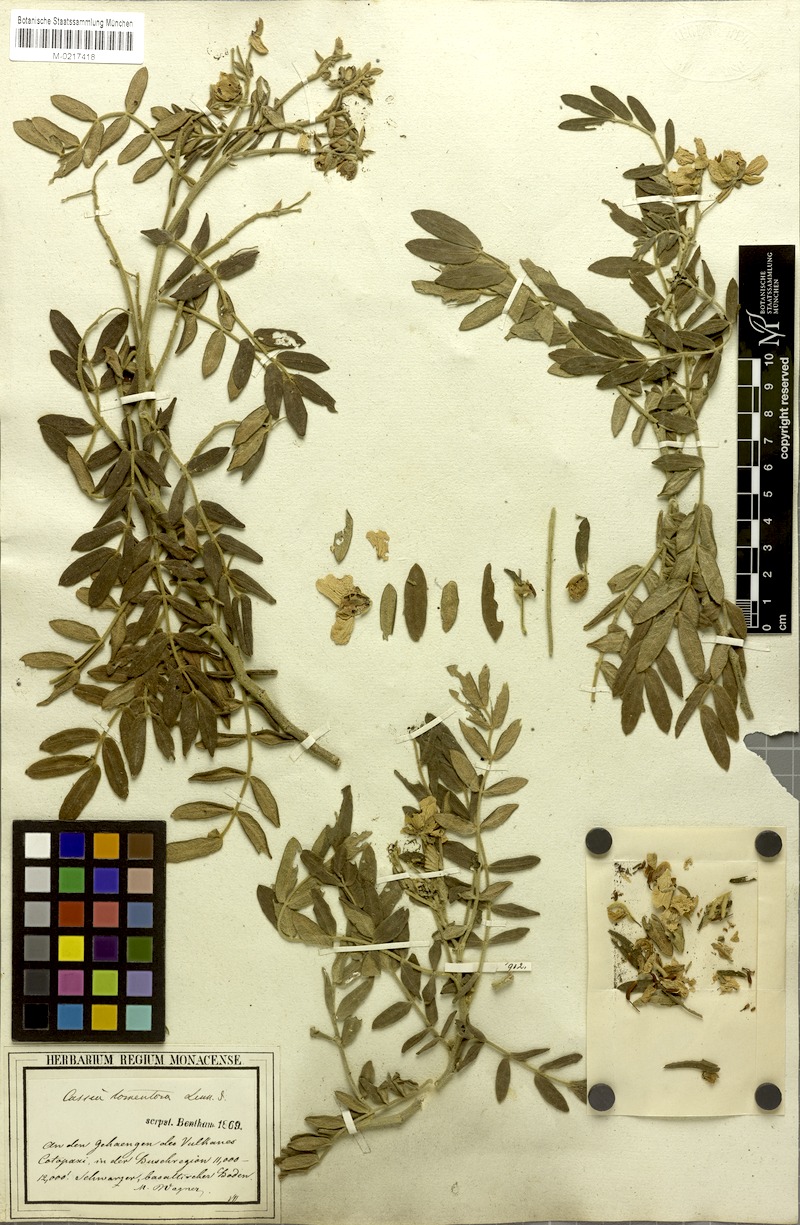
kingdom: Plantae
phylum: Tracheophyta
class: Magnoliopsida
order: Fabales
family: Fabaceae
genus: Senna
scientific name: Senna multiglandulosa
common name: Glandular senna
